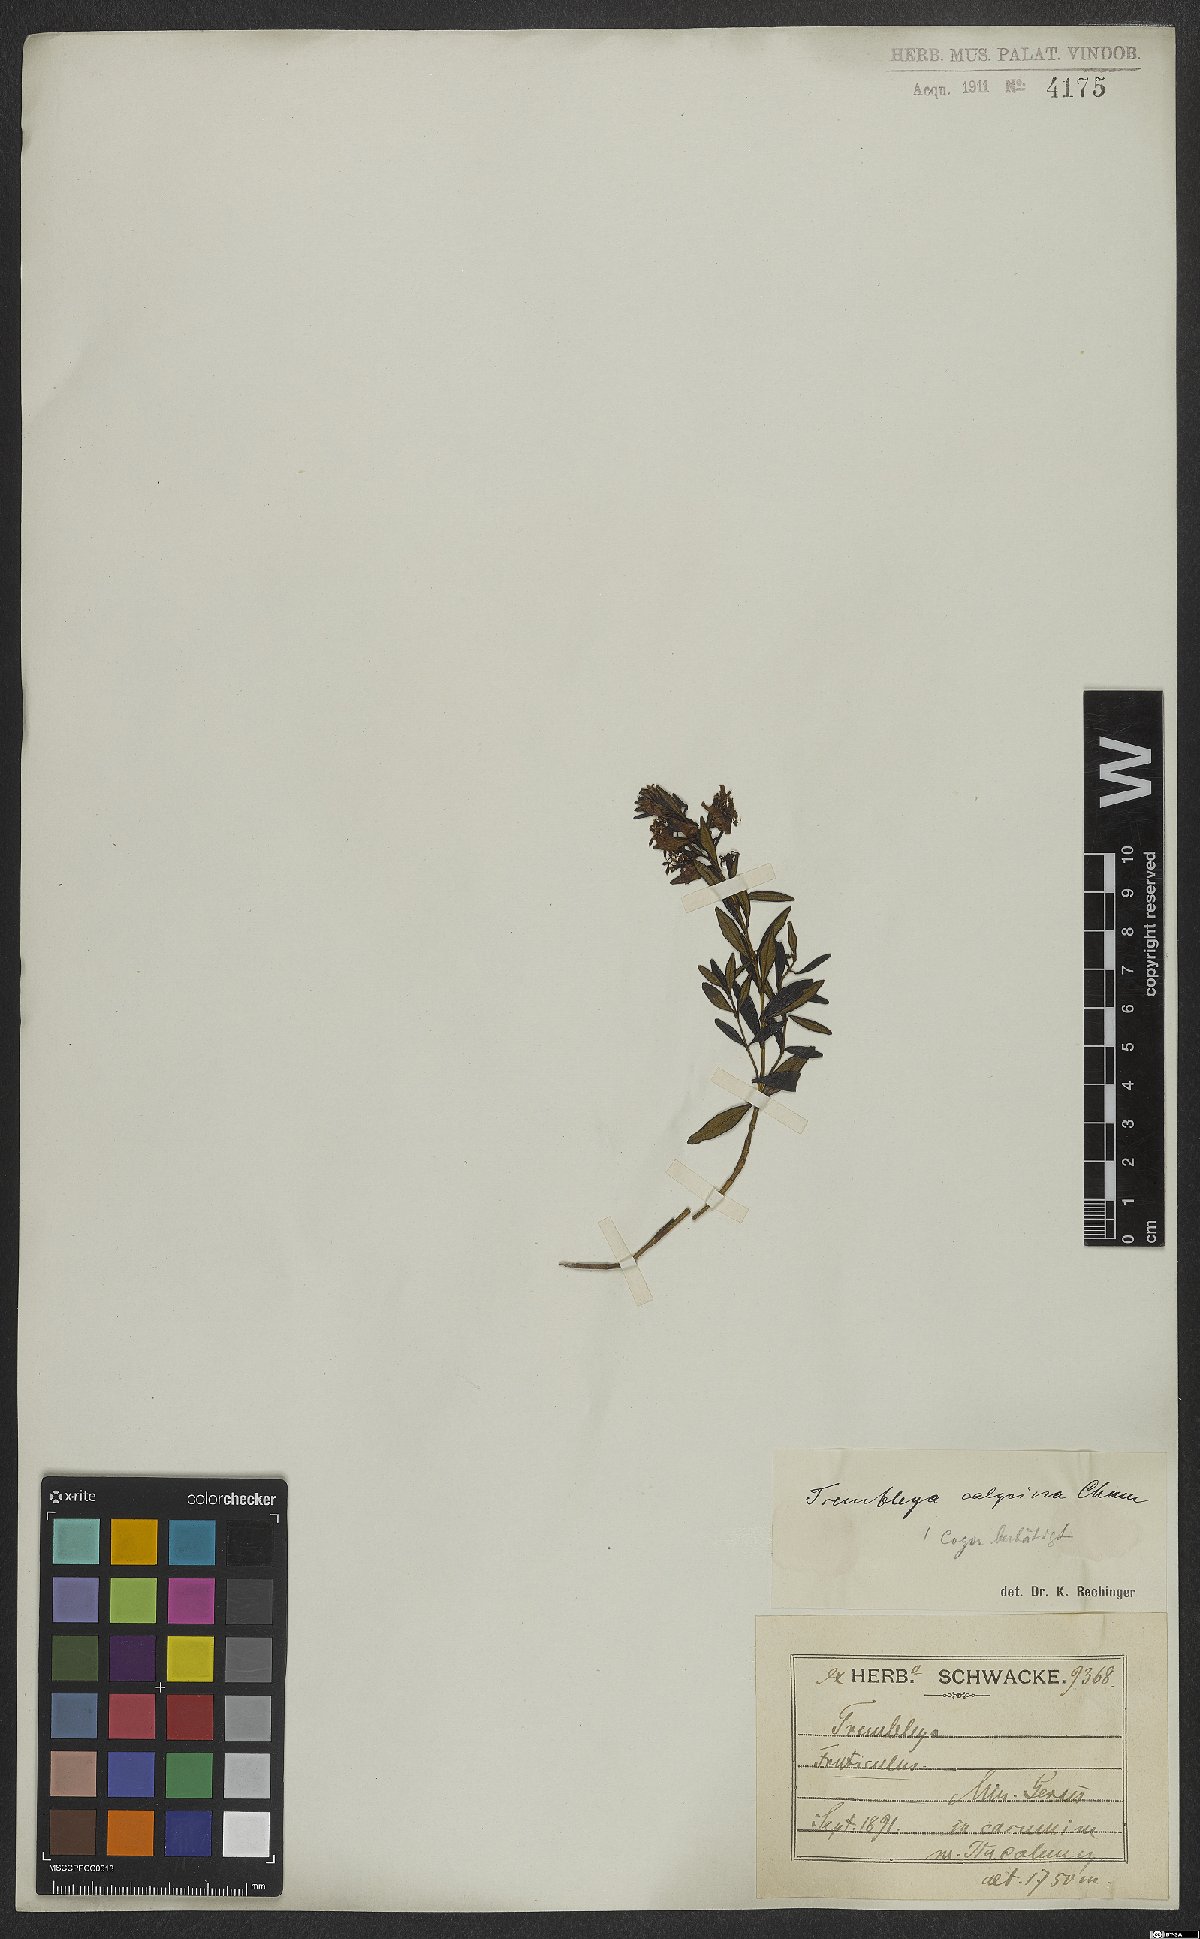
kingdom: Plantae
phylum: Tracheophyta
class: Magnoliopsida
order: Myrtales
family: Melastomataceae
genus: Microlicia
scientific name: Microlicia calycina
